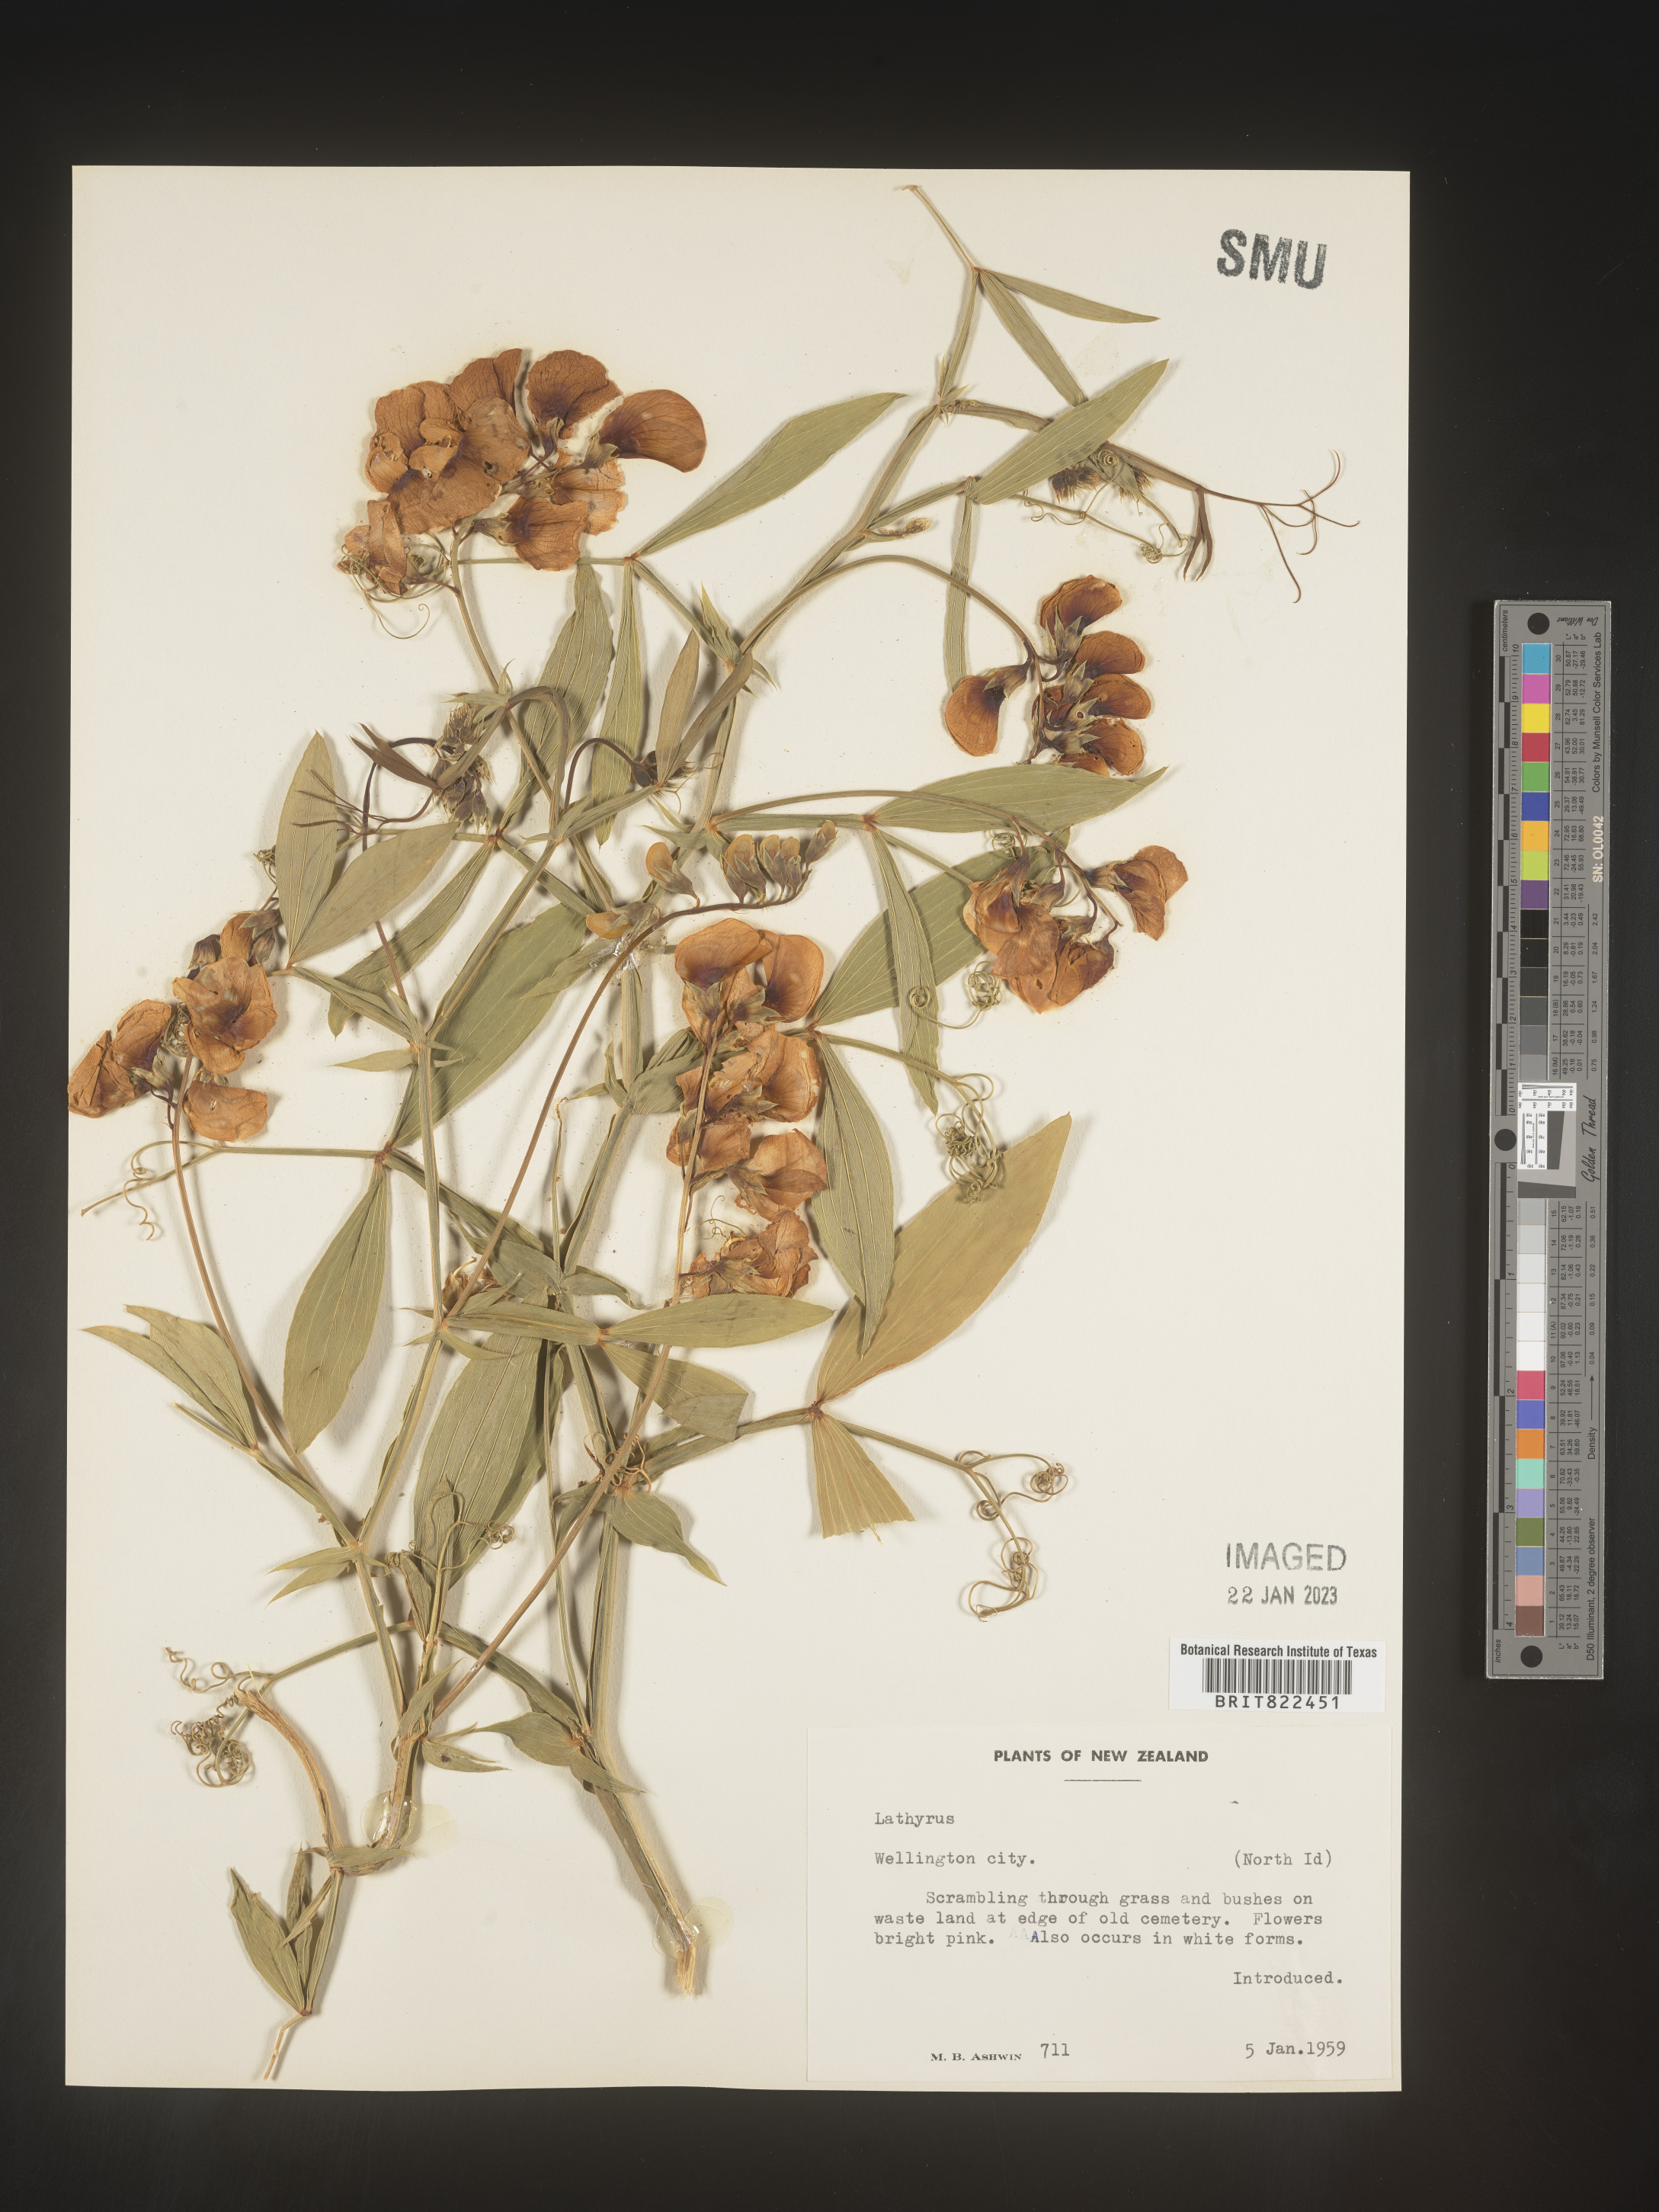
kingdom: Plantae
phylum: Tracheophyta
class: Magnoliopsida
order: Fabales
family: Fabaceae
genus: Lathyrus
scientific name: Lathyrus
